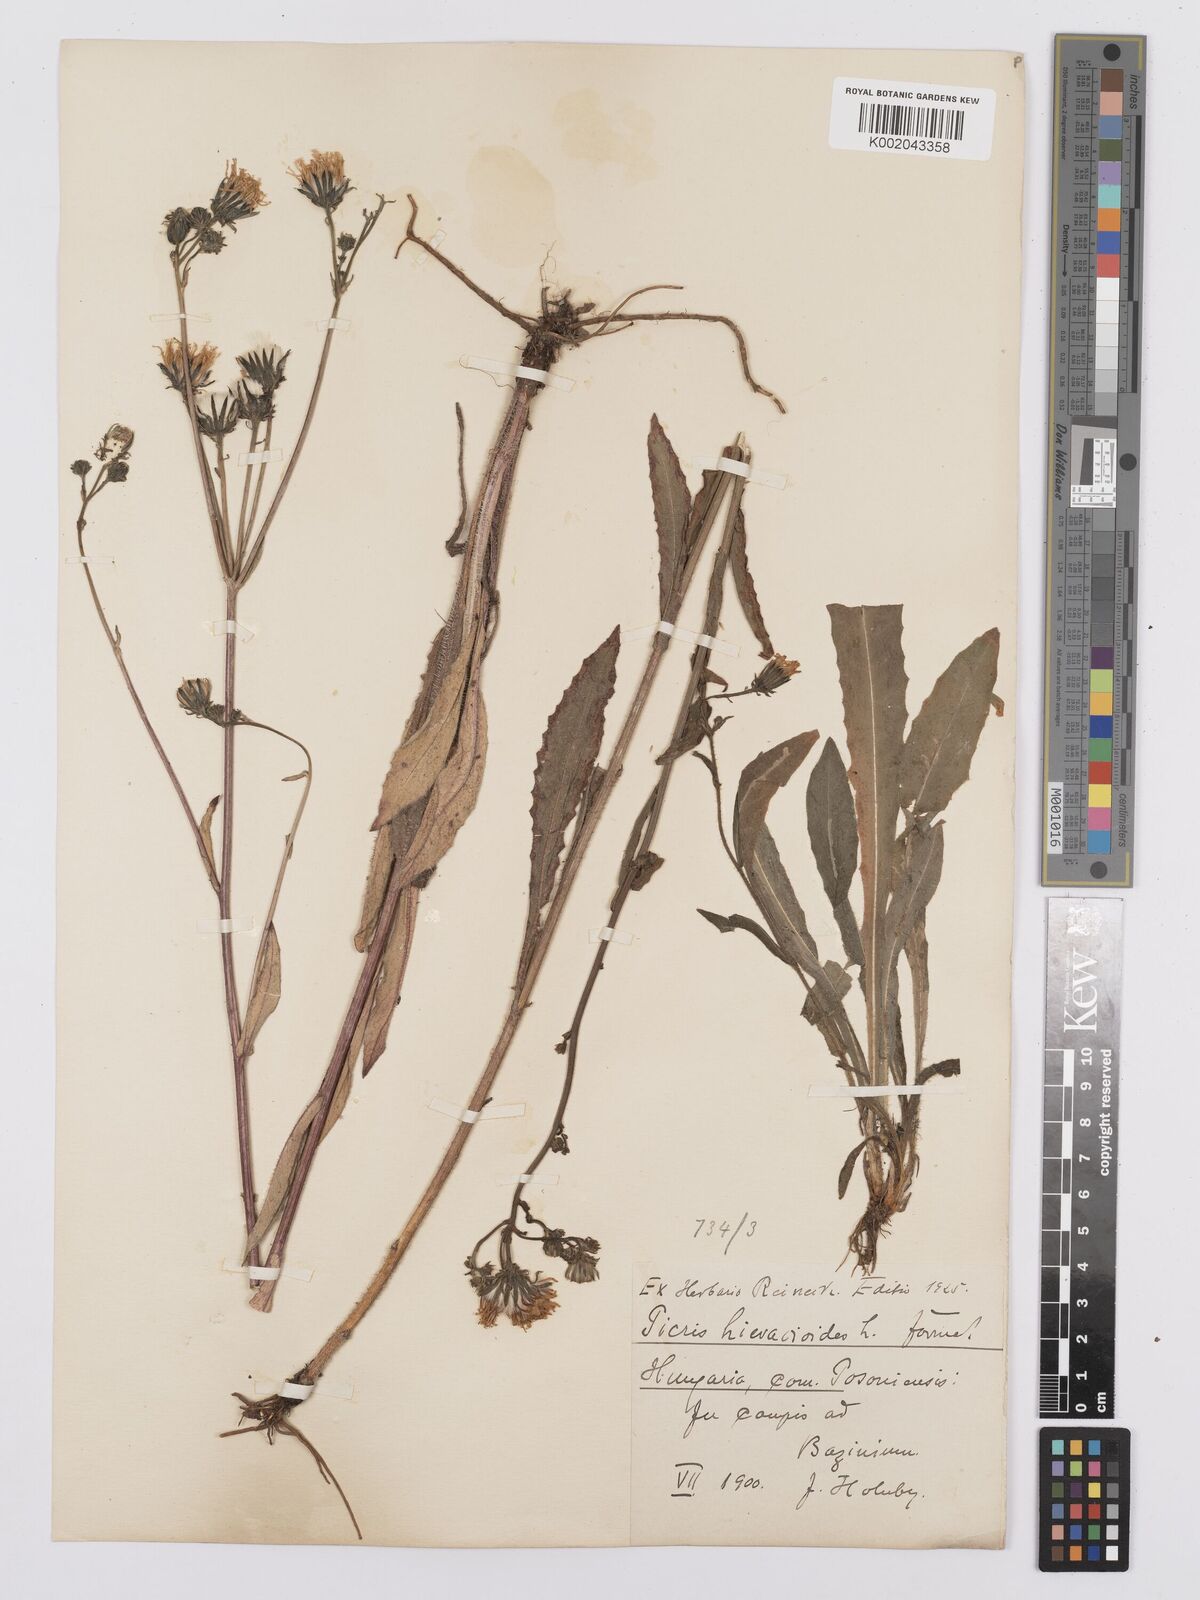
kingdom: Plantae
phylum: Tracheophyta
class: Magnoliopsida
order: Asterales
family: Asteraceae
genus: Picris
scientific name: Picris hieracioides
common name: Hawkweed oxtongue
